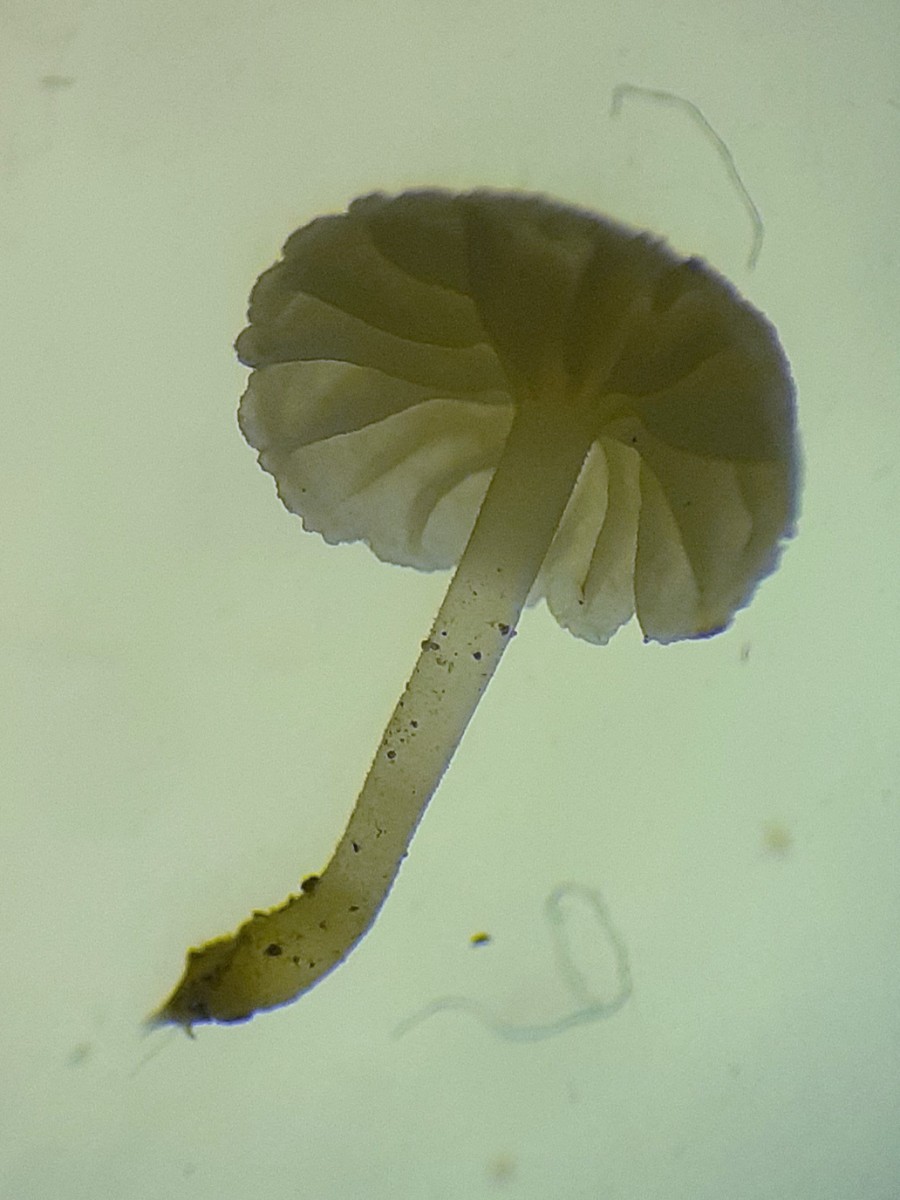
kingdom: Fungi
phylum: Basidiomycota
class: Agaricomycetes
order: Agaricales
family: Porotheleaceae
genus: Phloeomana
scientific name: Phloeomana speirea
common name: kvist-huesvamp
